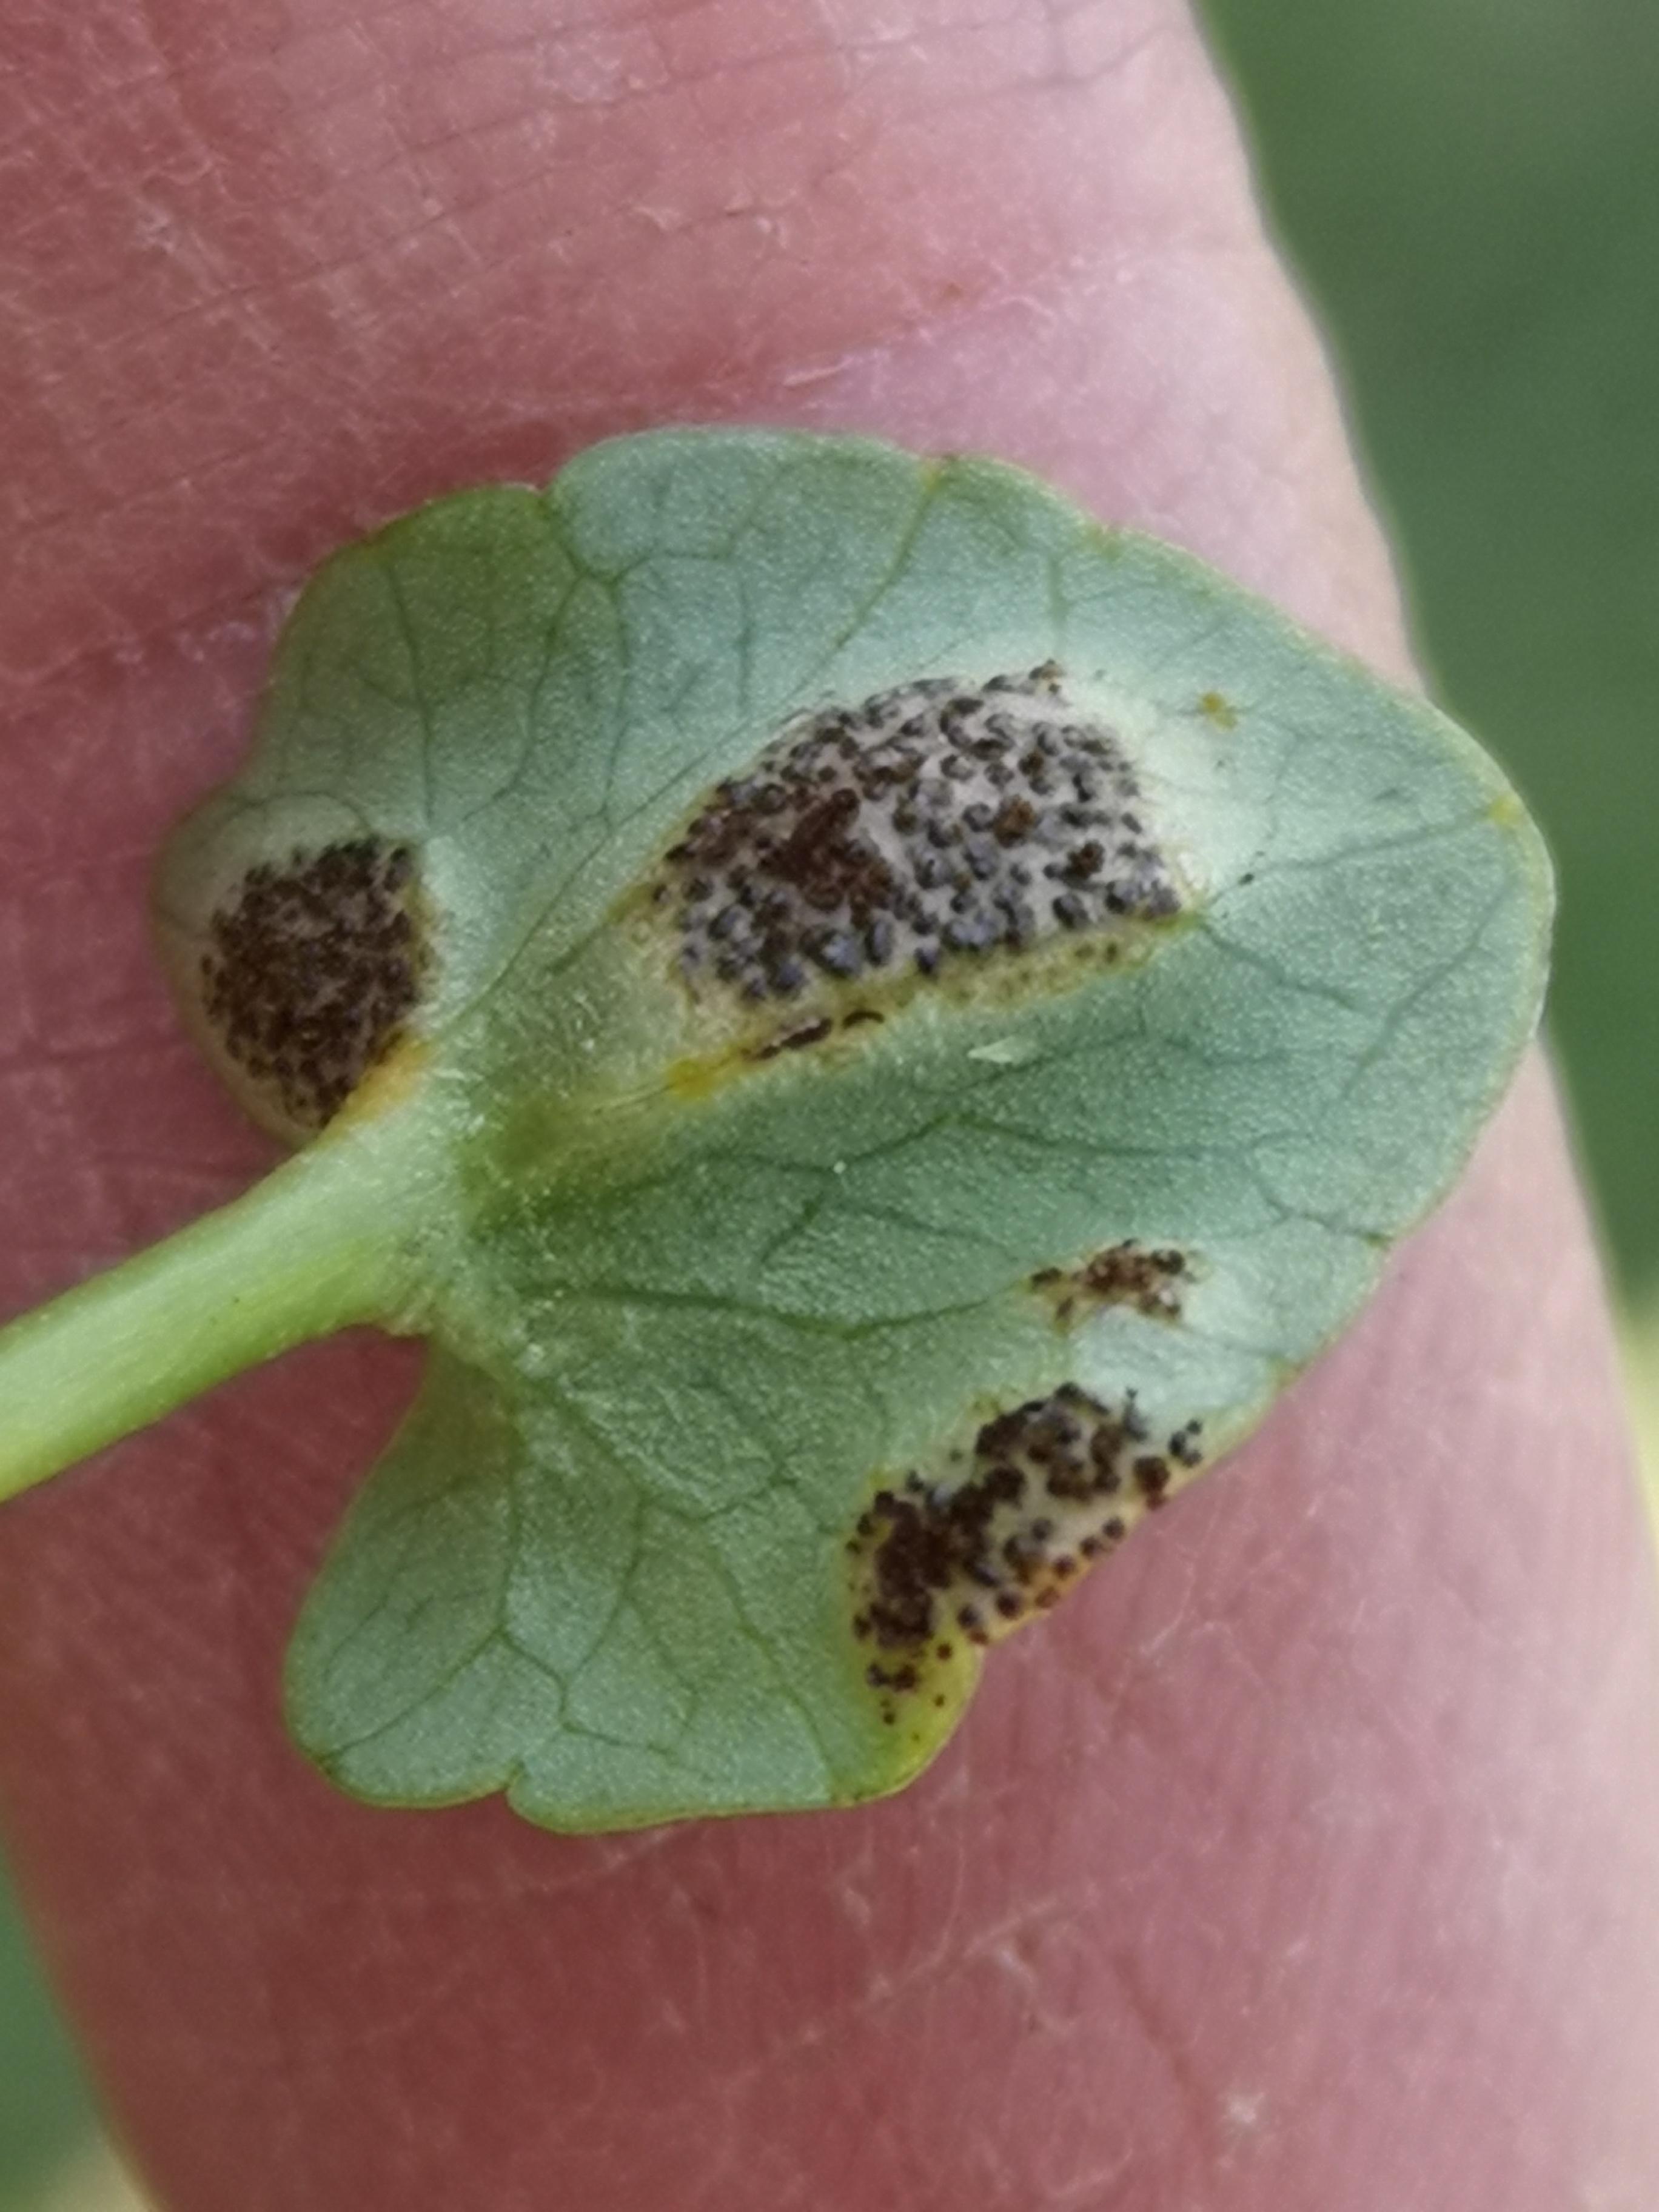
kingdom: Fungi
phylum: Basidiomycota
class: Pucciniomycetes
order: Pucciniales
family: Pucciniaceae
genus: Uromyces
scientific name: Uromyces ficariae
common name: vorterod-encellerust
